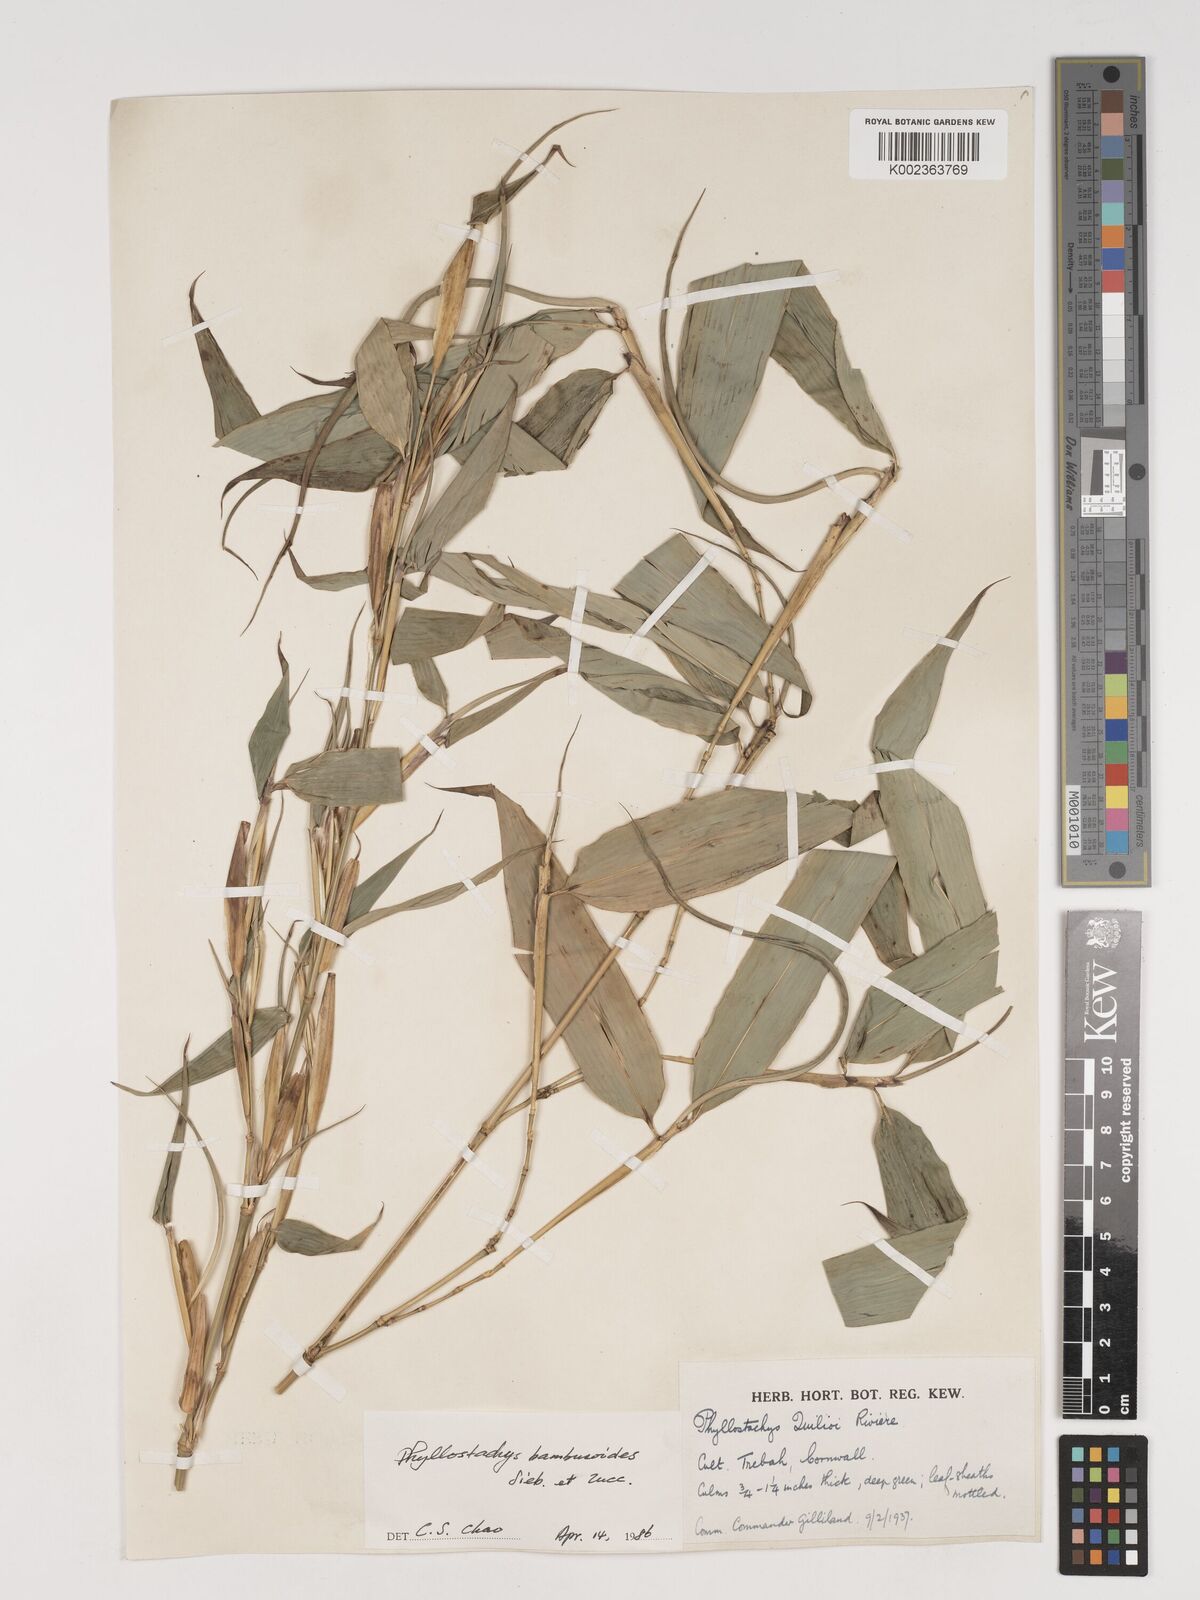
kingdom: Plantae
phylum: Tracheophyta
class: Liliopsida
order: Poales
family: Poaceae
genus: Phyllostachys
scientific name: Phyllostachys reticulata
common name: Bamboo
